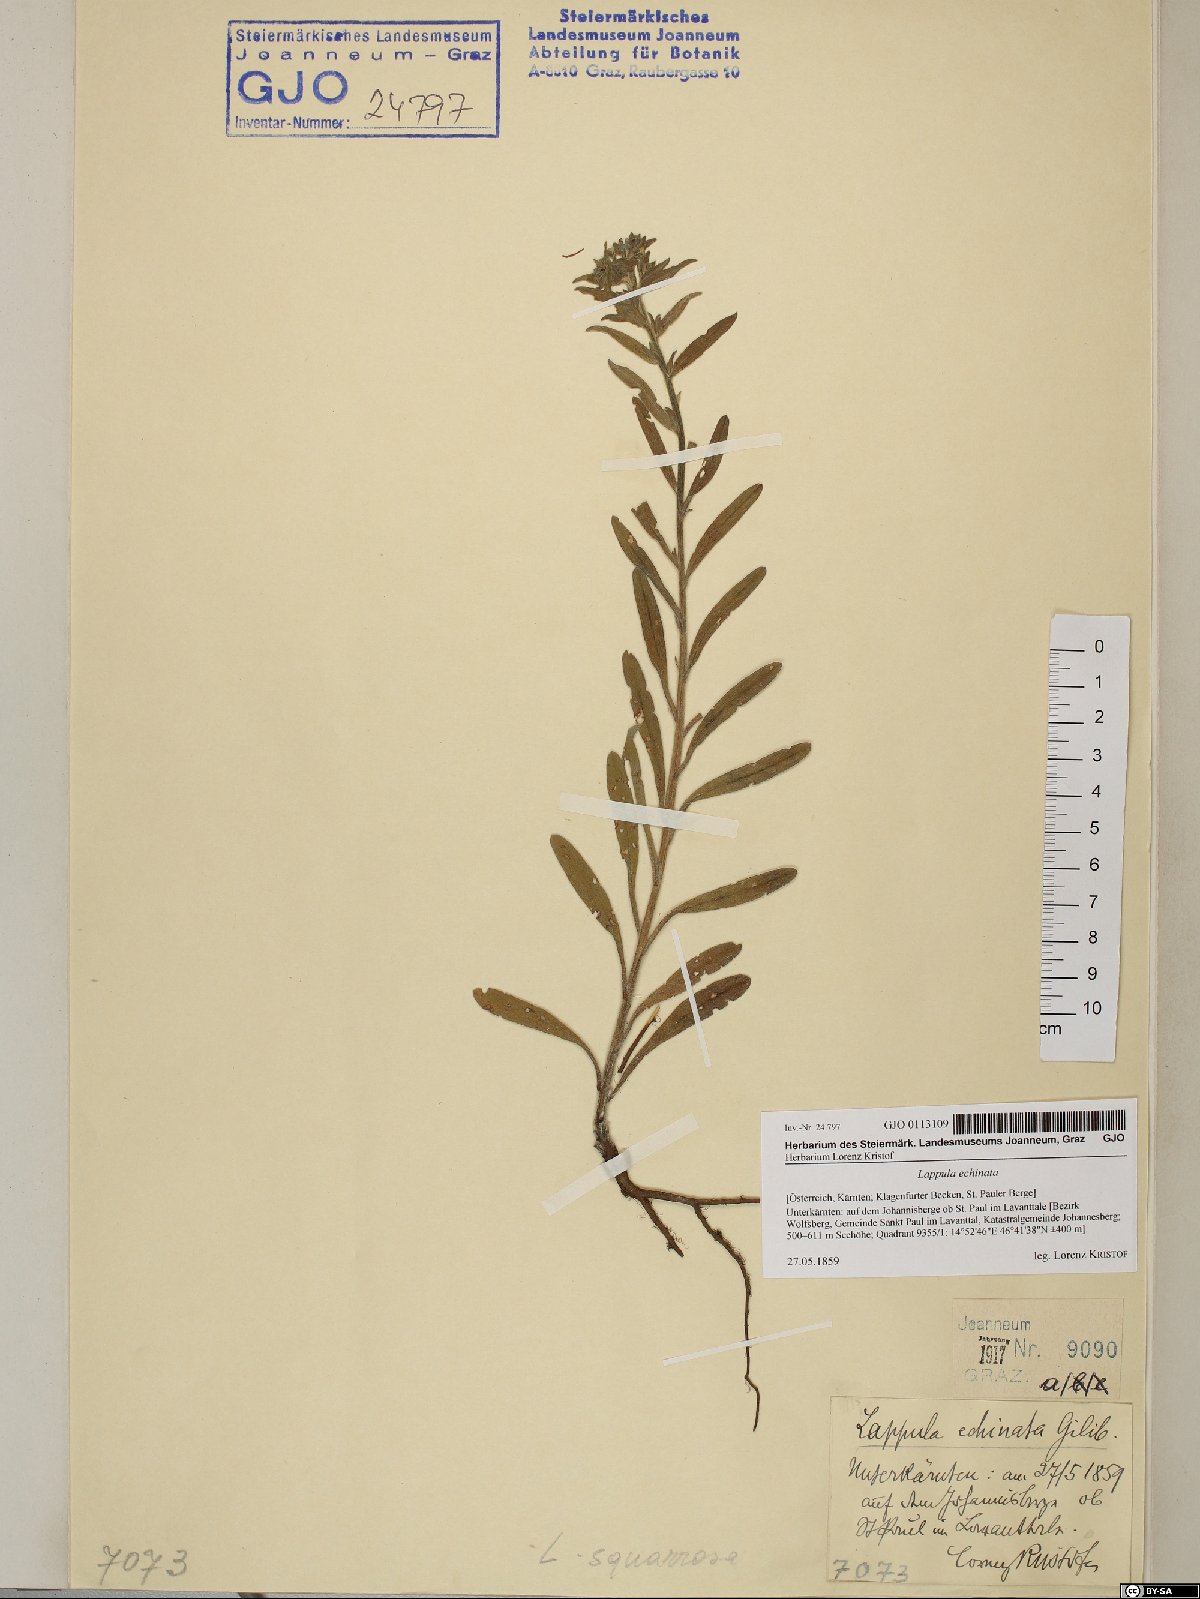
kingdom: Plantae
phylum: Tracheophyta
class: Magnoliopsida
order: Boraginales
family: Boraginaceae
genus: Lappula
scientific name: Lappula squarrosa
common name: European stickseed
